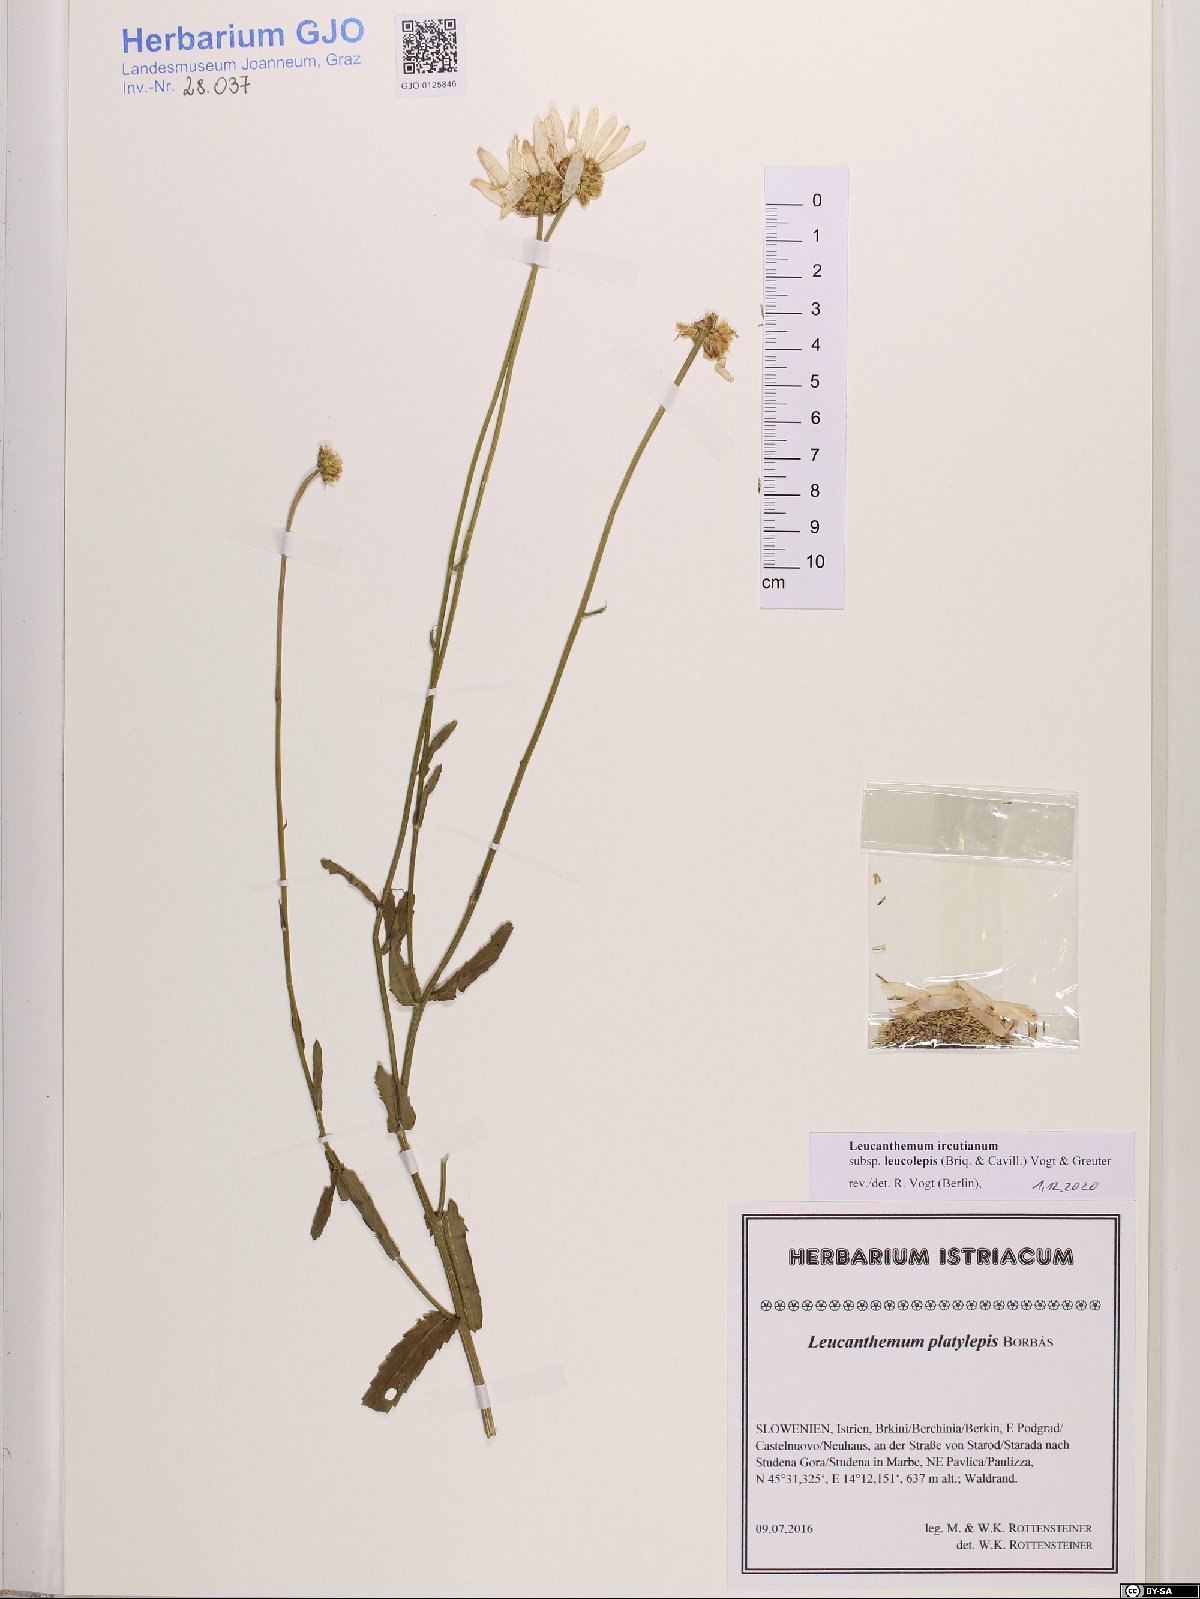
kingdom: Plantae
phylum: Tracheophyta
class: Magnoliopsida
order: Asterales
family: Asteraceae
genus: Leucanthemum
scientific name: Leucanthemum ircutianum
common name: Daisy
